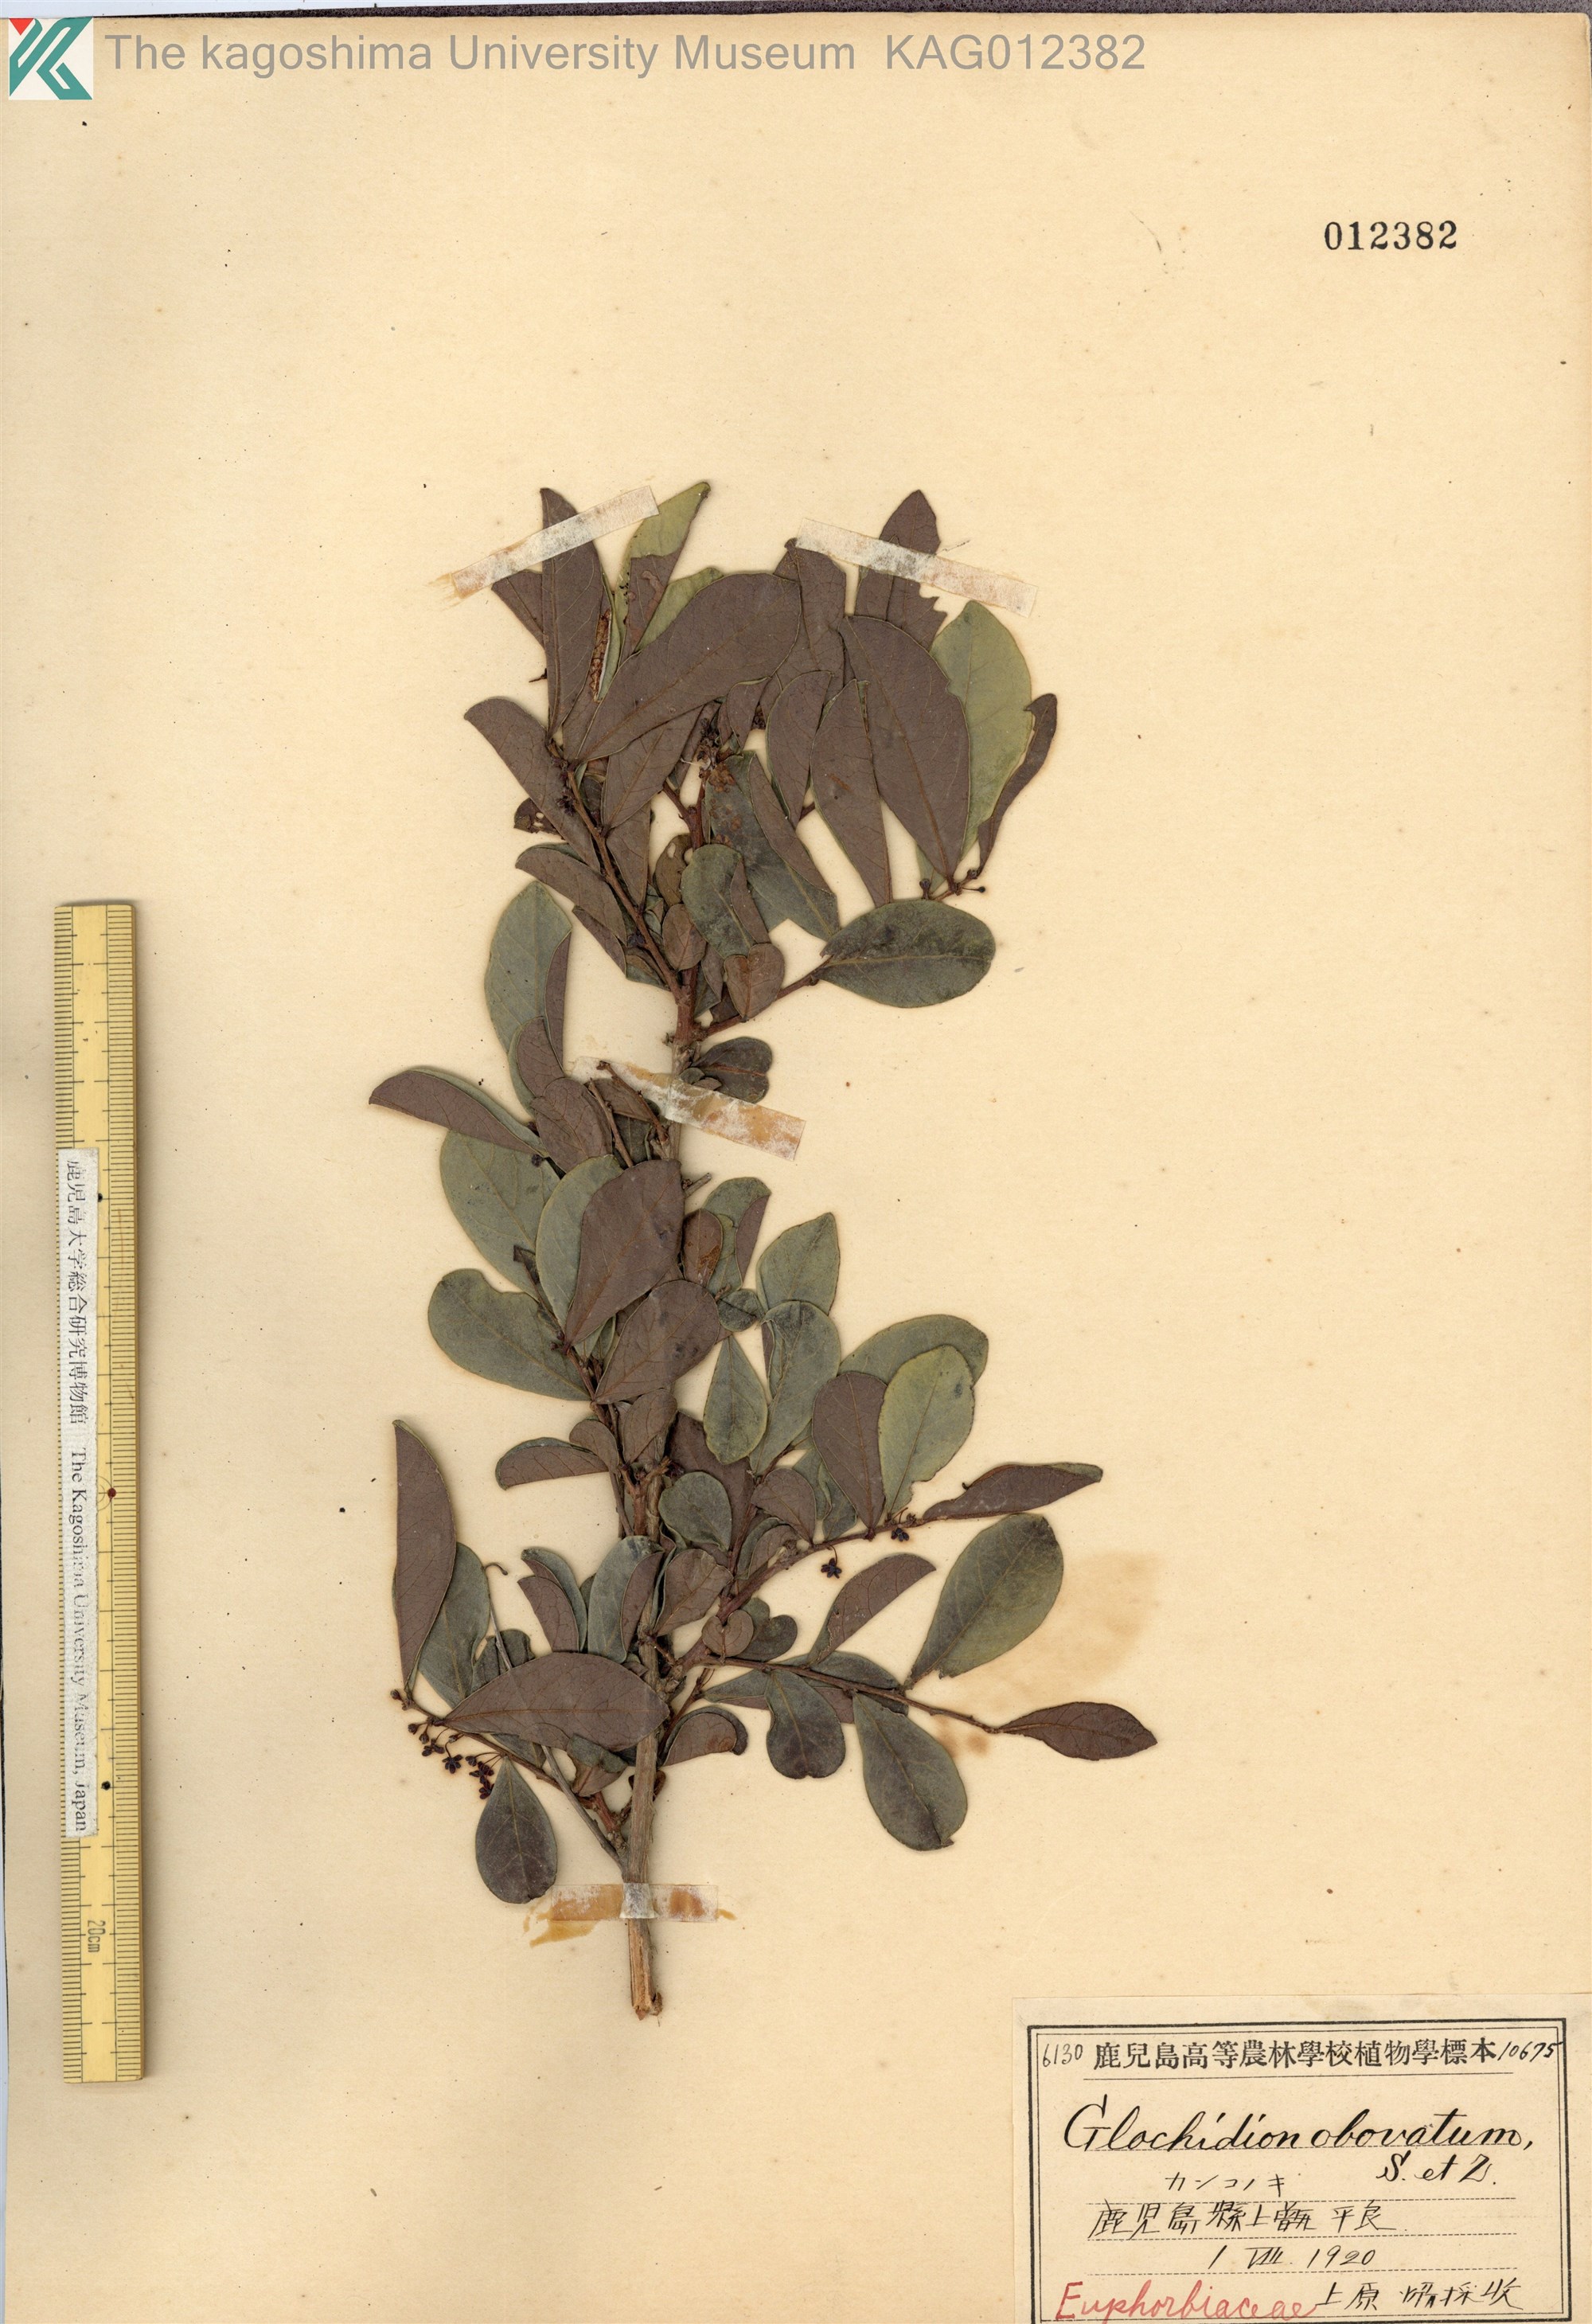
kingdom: Plantae
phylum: Tracheophyta
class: Magnoliopsida
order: Malpighiales
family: Phyllanthaceae
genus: Glochidion
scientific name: Glochidion obovatum
